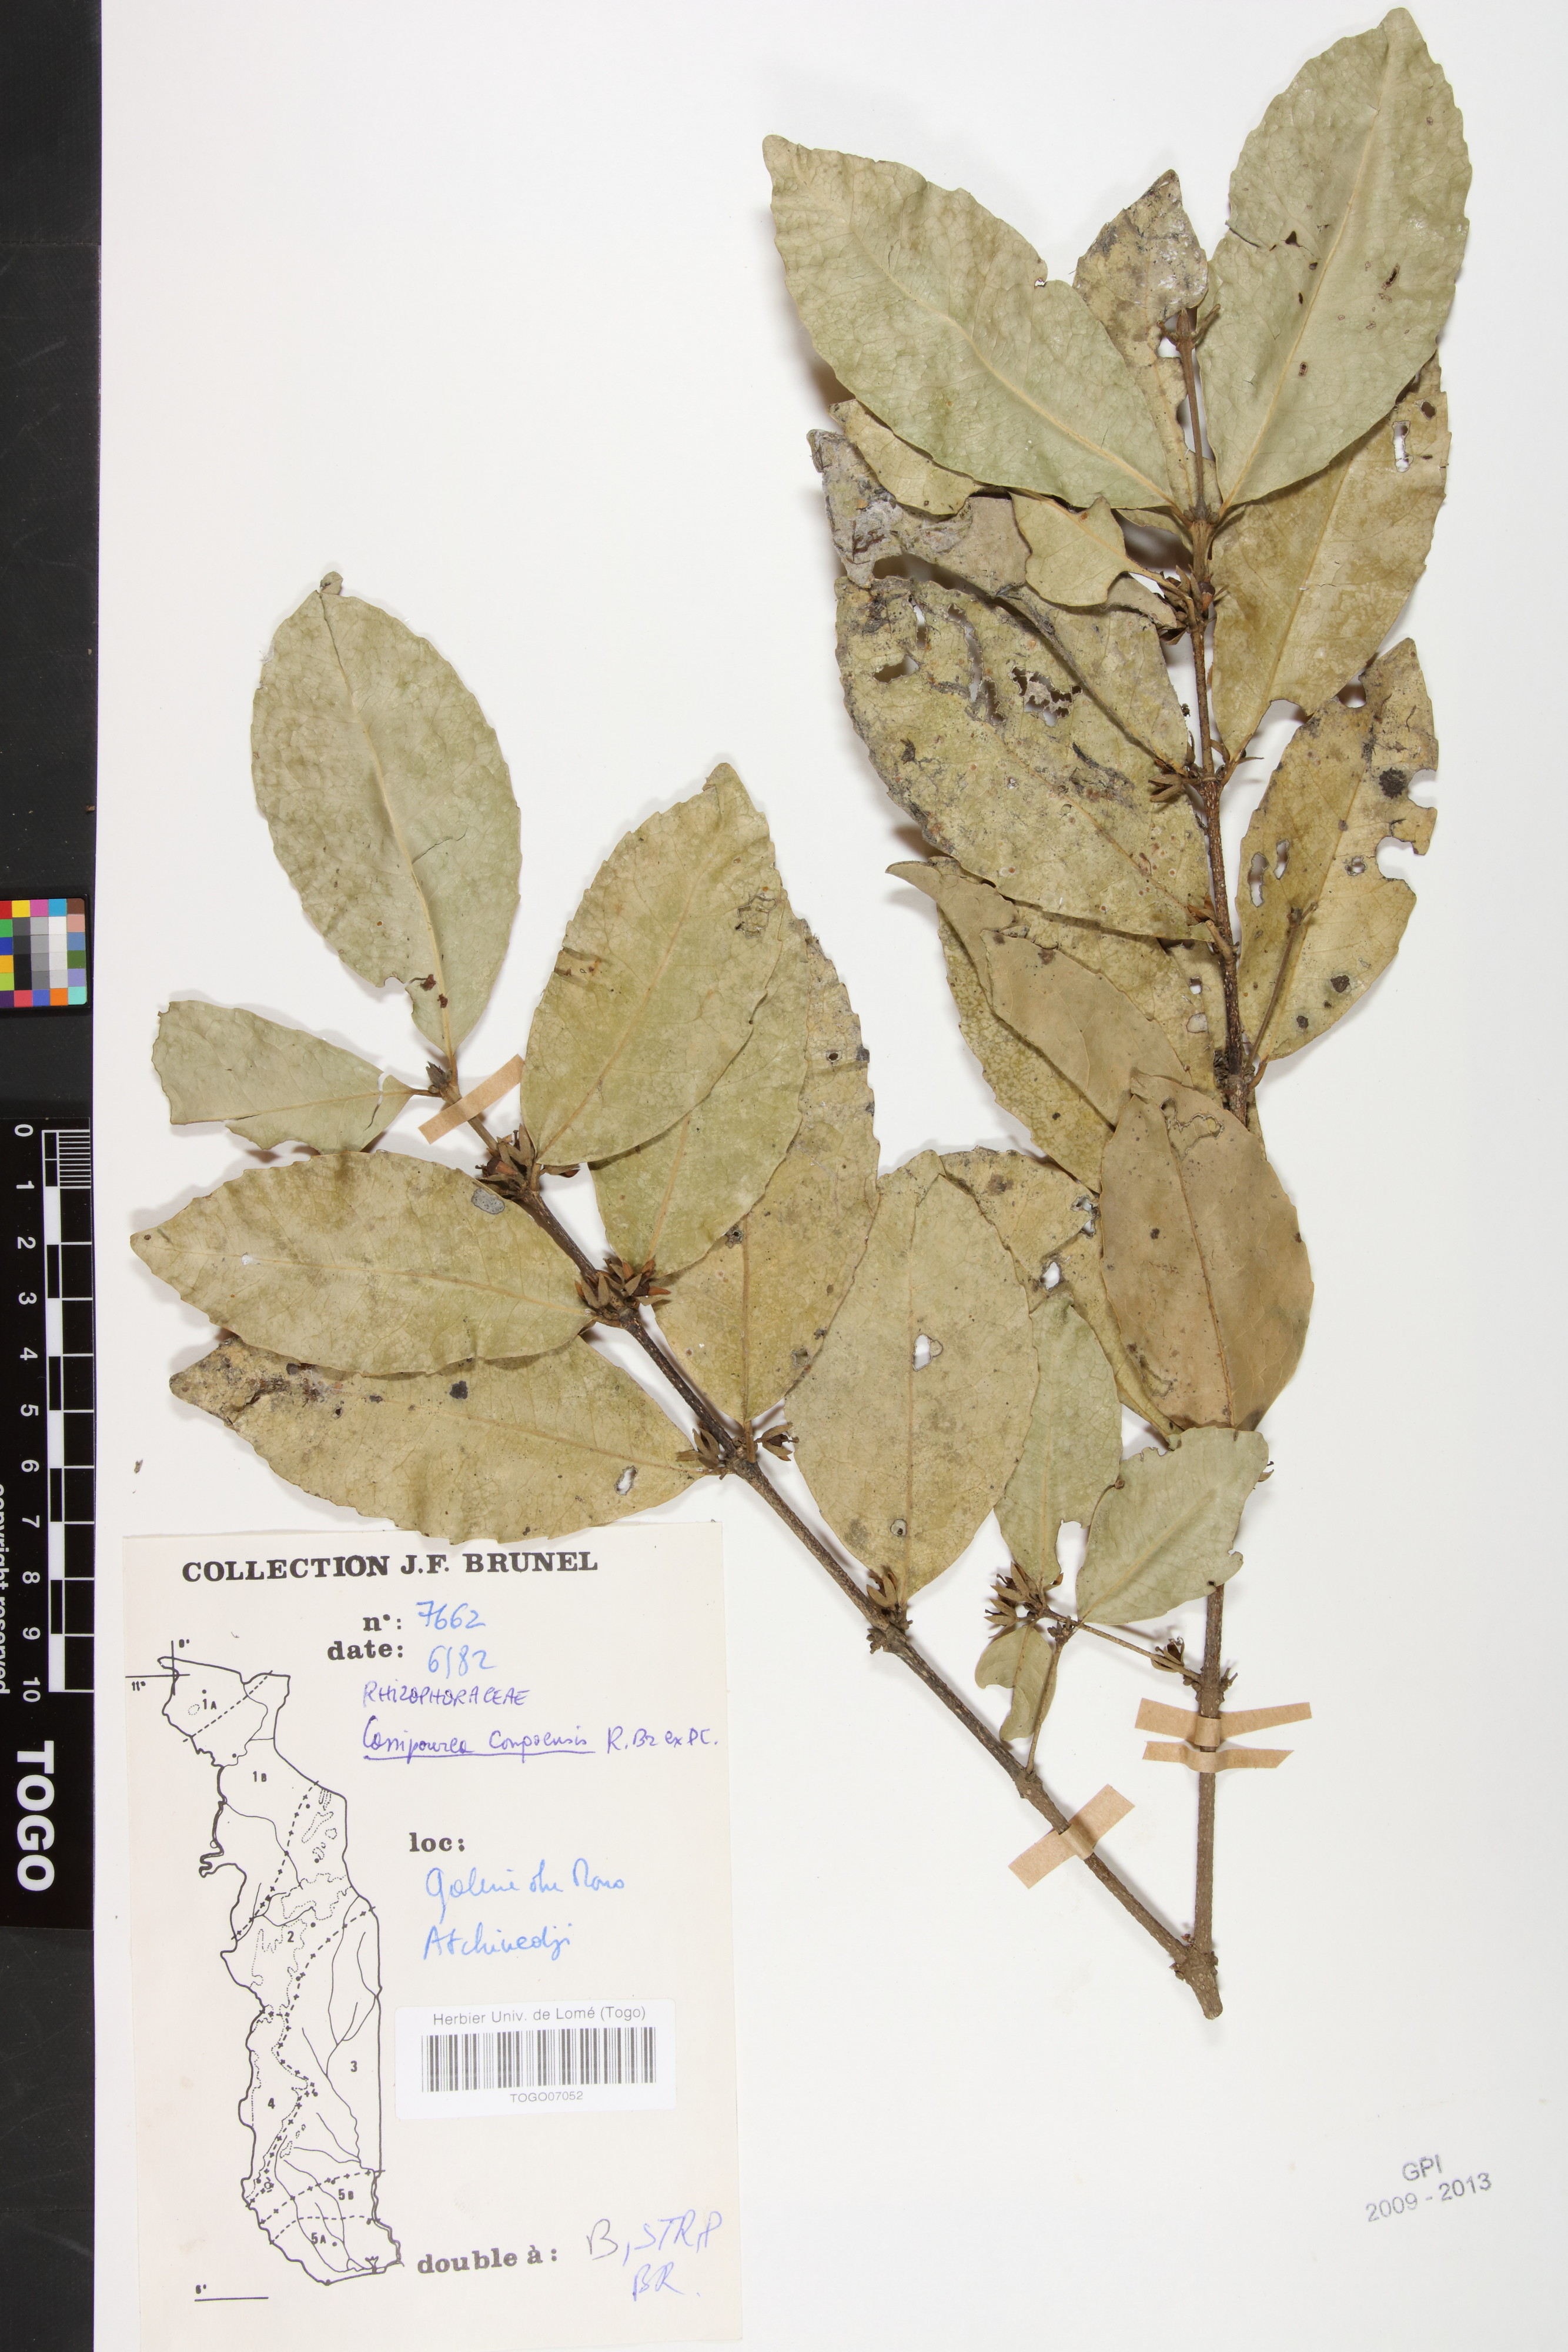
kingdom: Plantae
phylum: Tracheophyta
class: Magnoliopsida
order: Malpighiales
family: Rhizophoraceae
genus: Cassipourea
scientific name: Cassipourea congoensis
